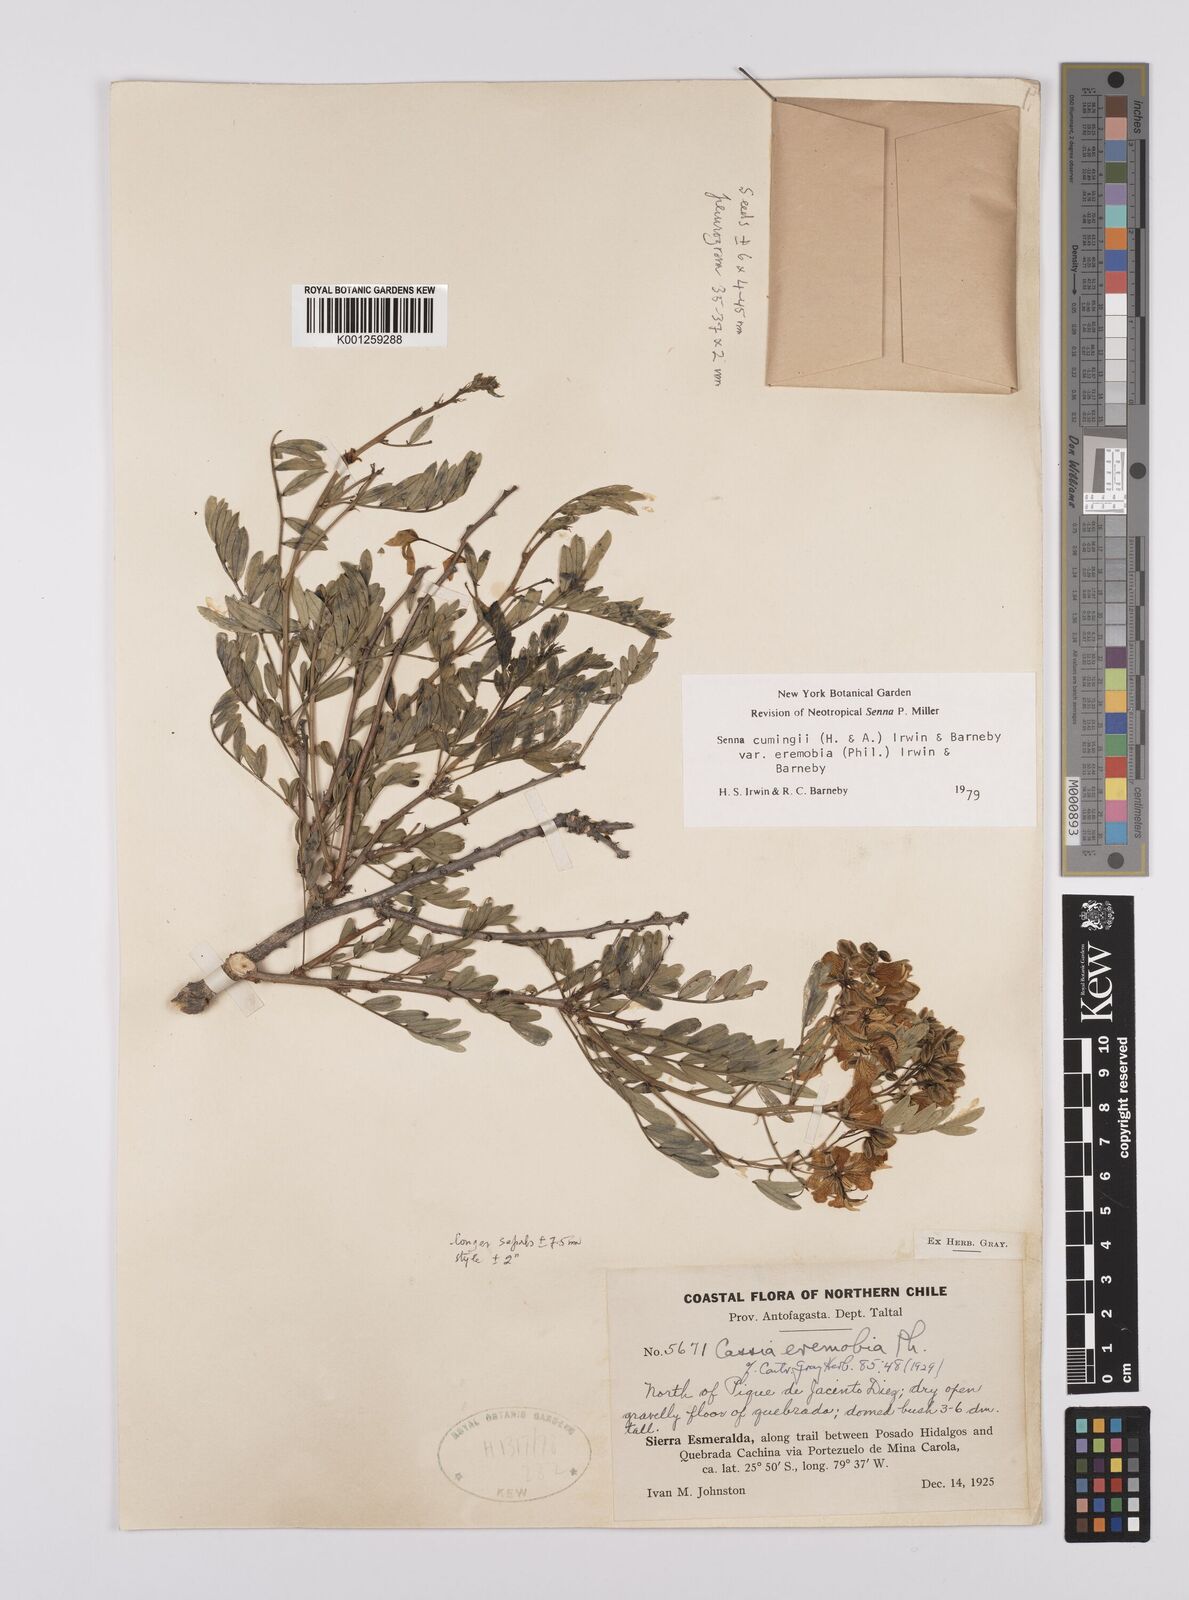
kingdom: Plantae
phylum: Tracheophyta
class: Magnoliopsida
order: Fabales
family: Fabaceae
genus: Senna
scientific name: Senna cumingii
